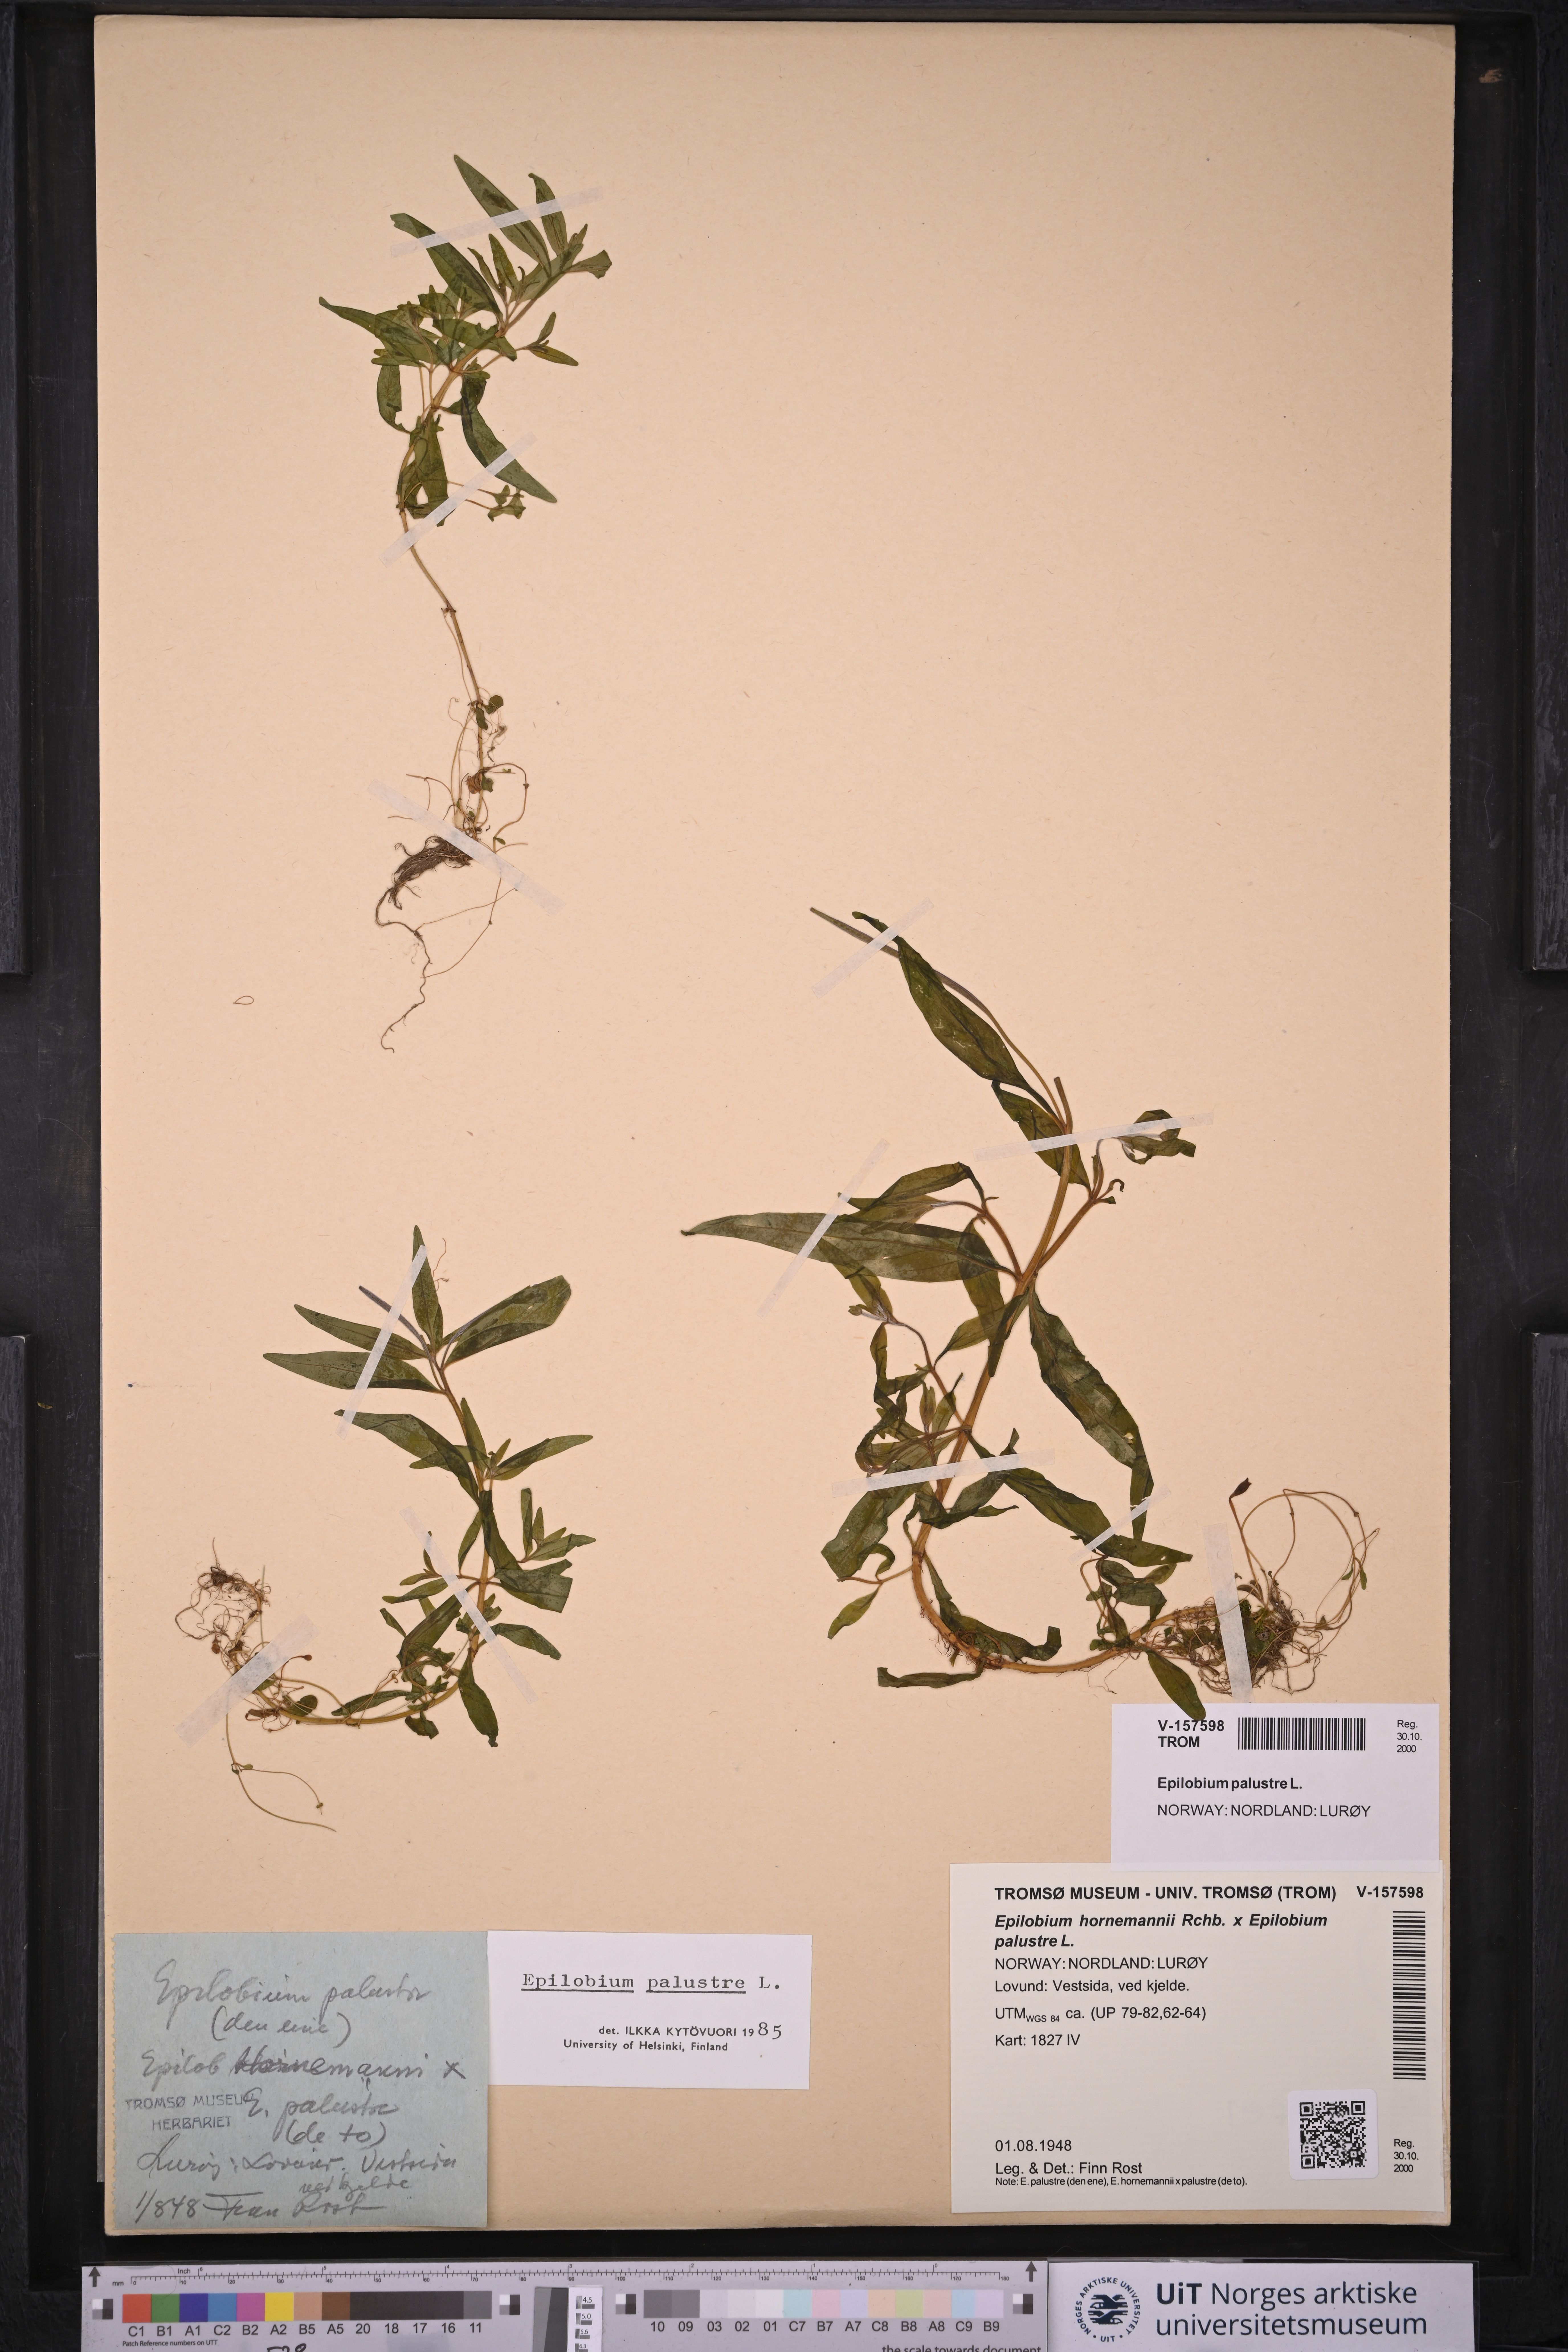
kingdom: Plantae
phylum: Tracheophyta
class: Magnoliopsida
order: Myrtales
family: Onagraceae
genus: Epilobium
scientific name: Epilobium palustre
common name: Marsh willowherb
